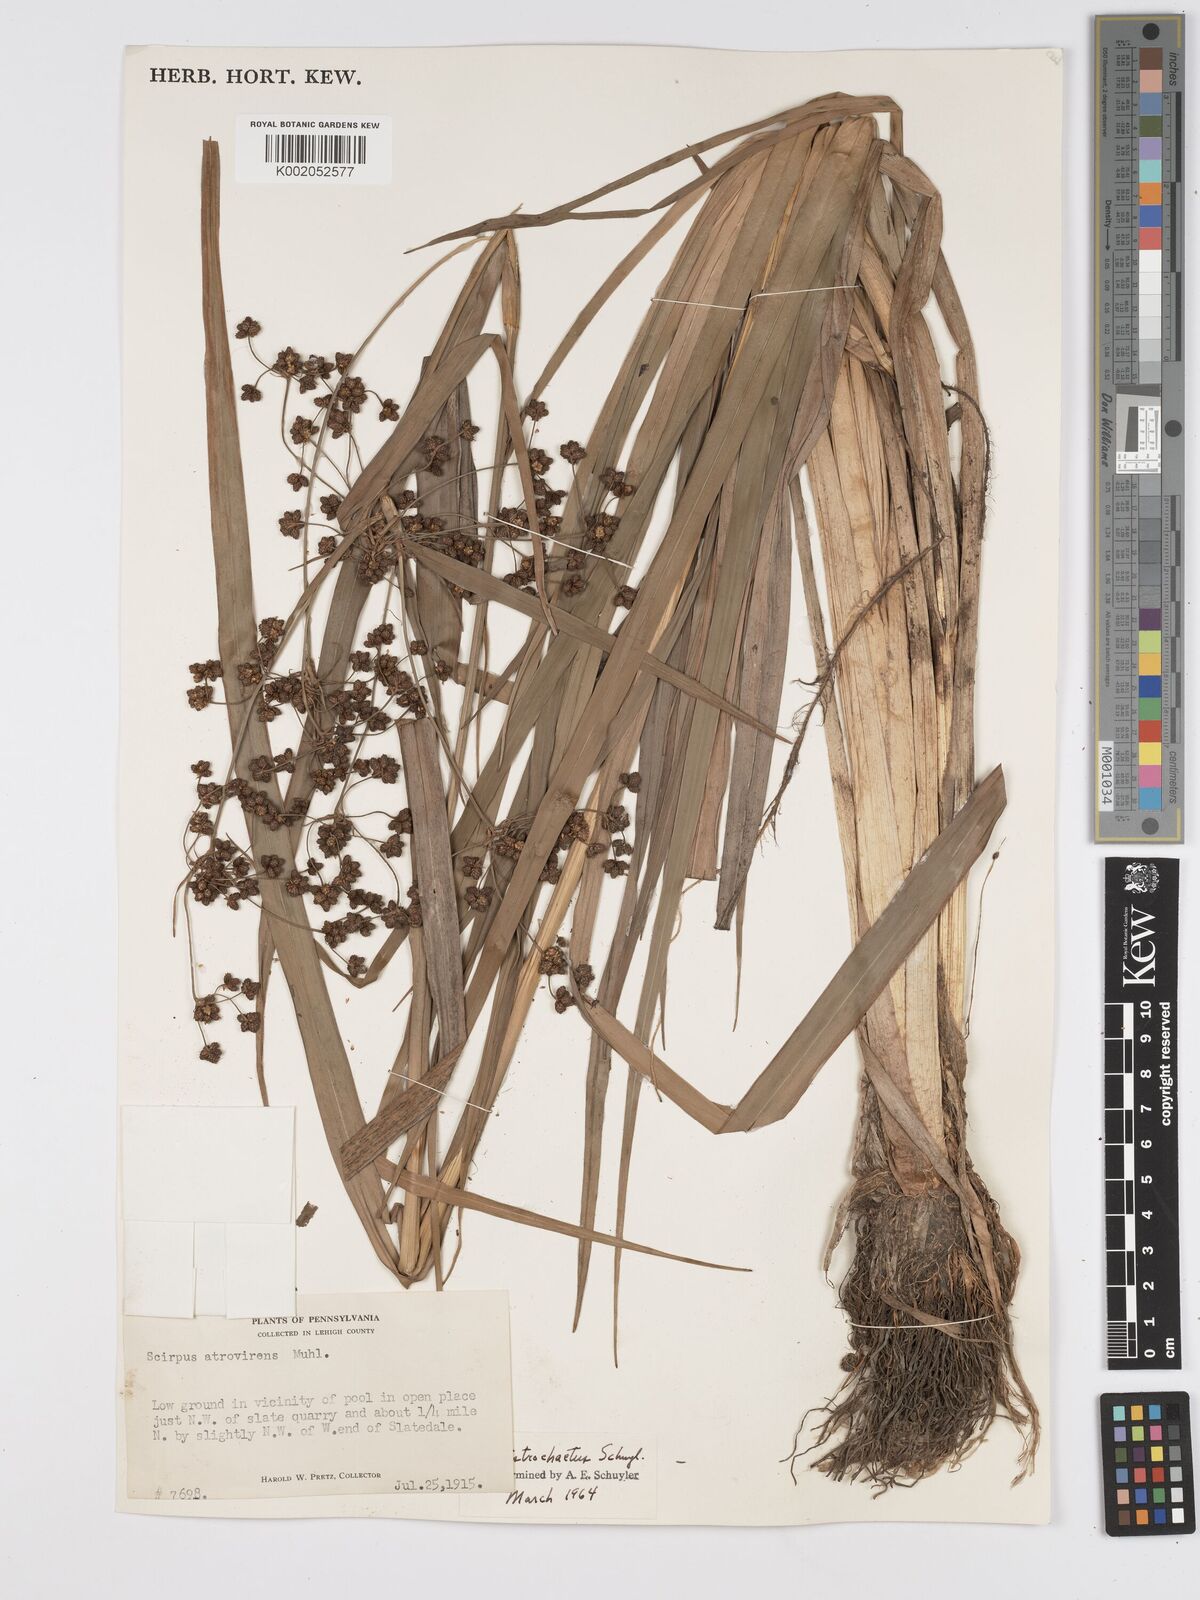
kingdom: Plantae
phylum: Tracheophyta
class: Liliopsida
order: Poales
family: Cyperaceae
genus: Scirpus
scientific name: Scirpus ancistrochaetus
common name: Northeastern bulrush
